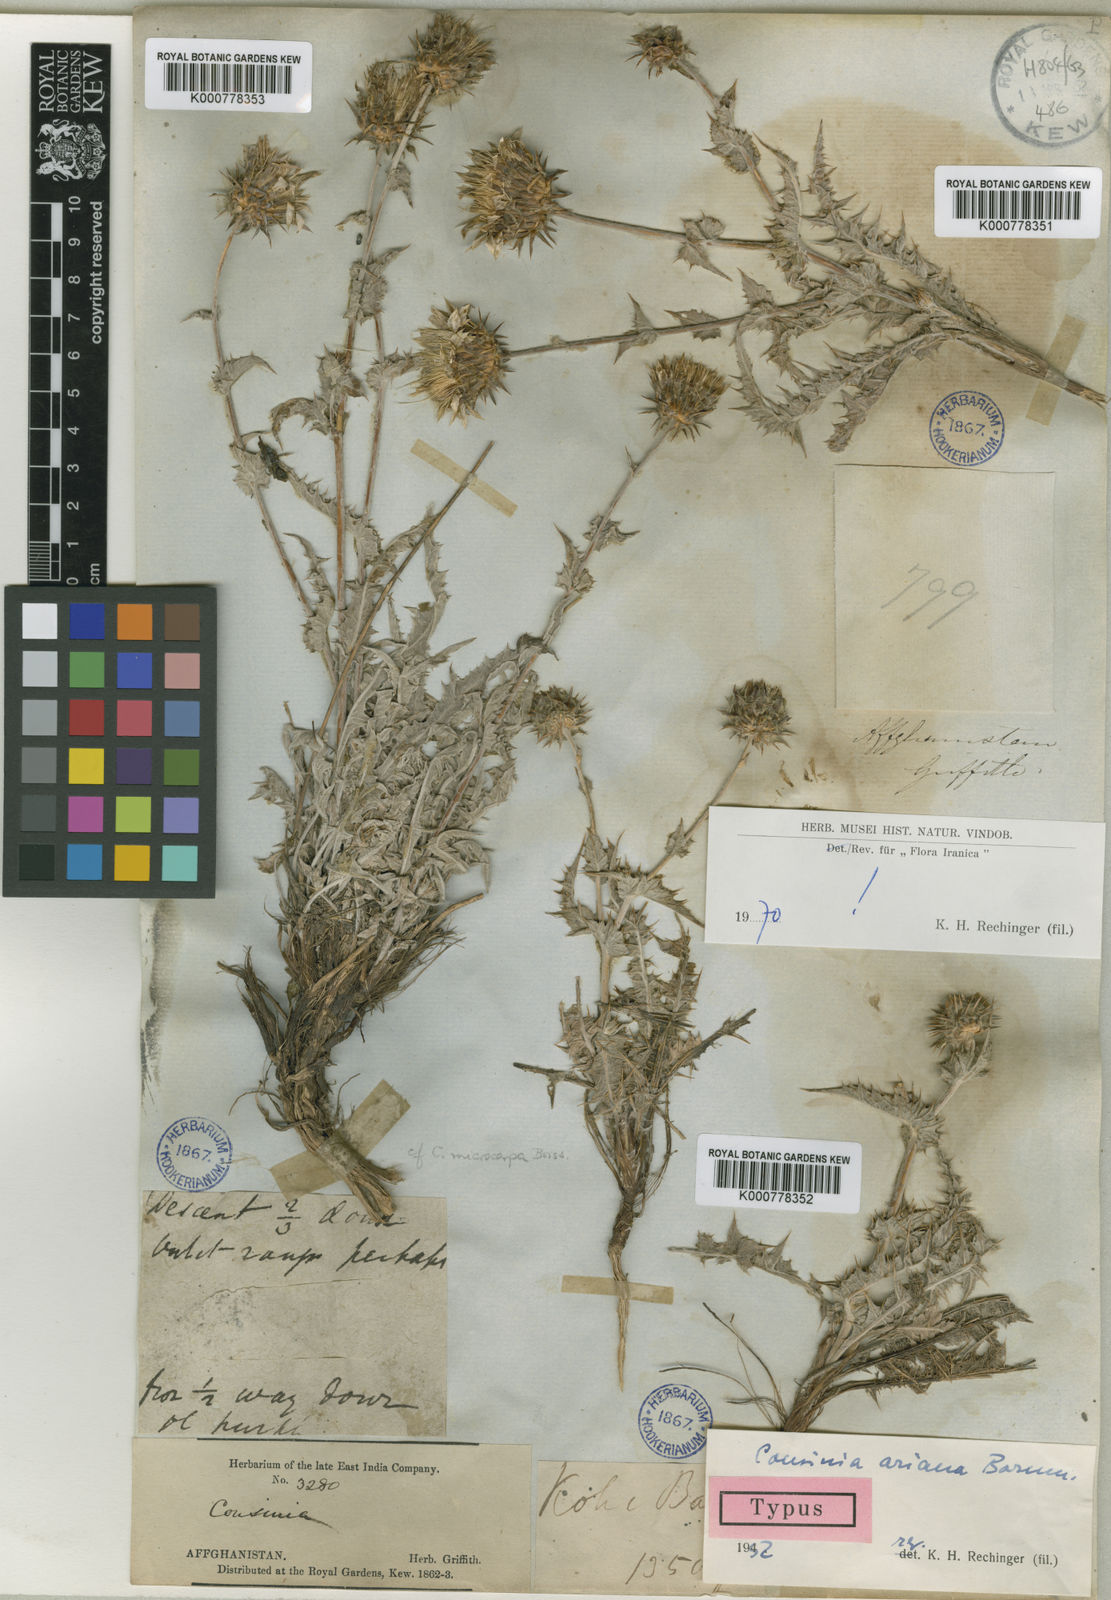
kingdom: Plantae
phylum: Tracheophyta
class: Magnoliopsida
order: Asterales
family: Asteraceae
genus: Cousinia
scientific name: Cousinia ariana
